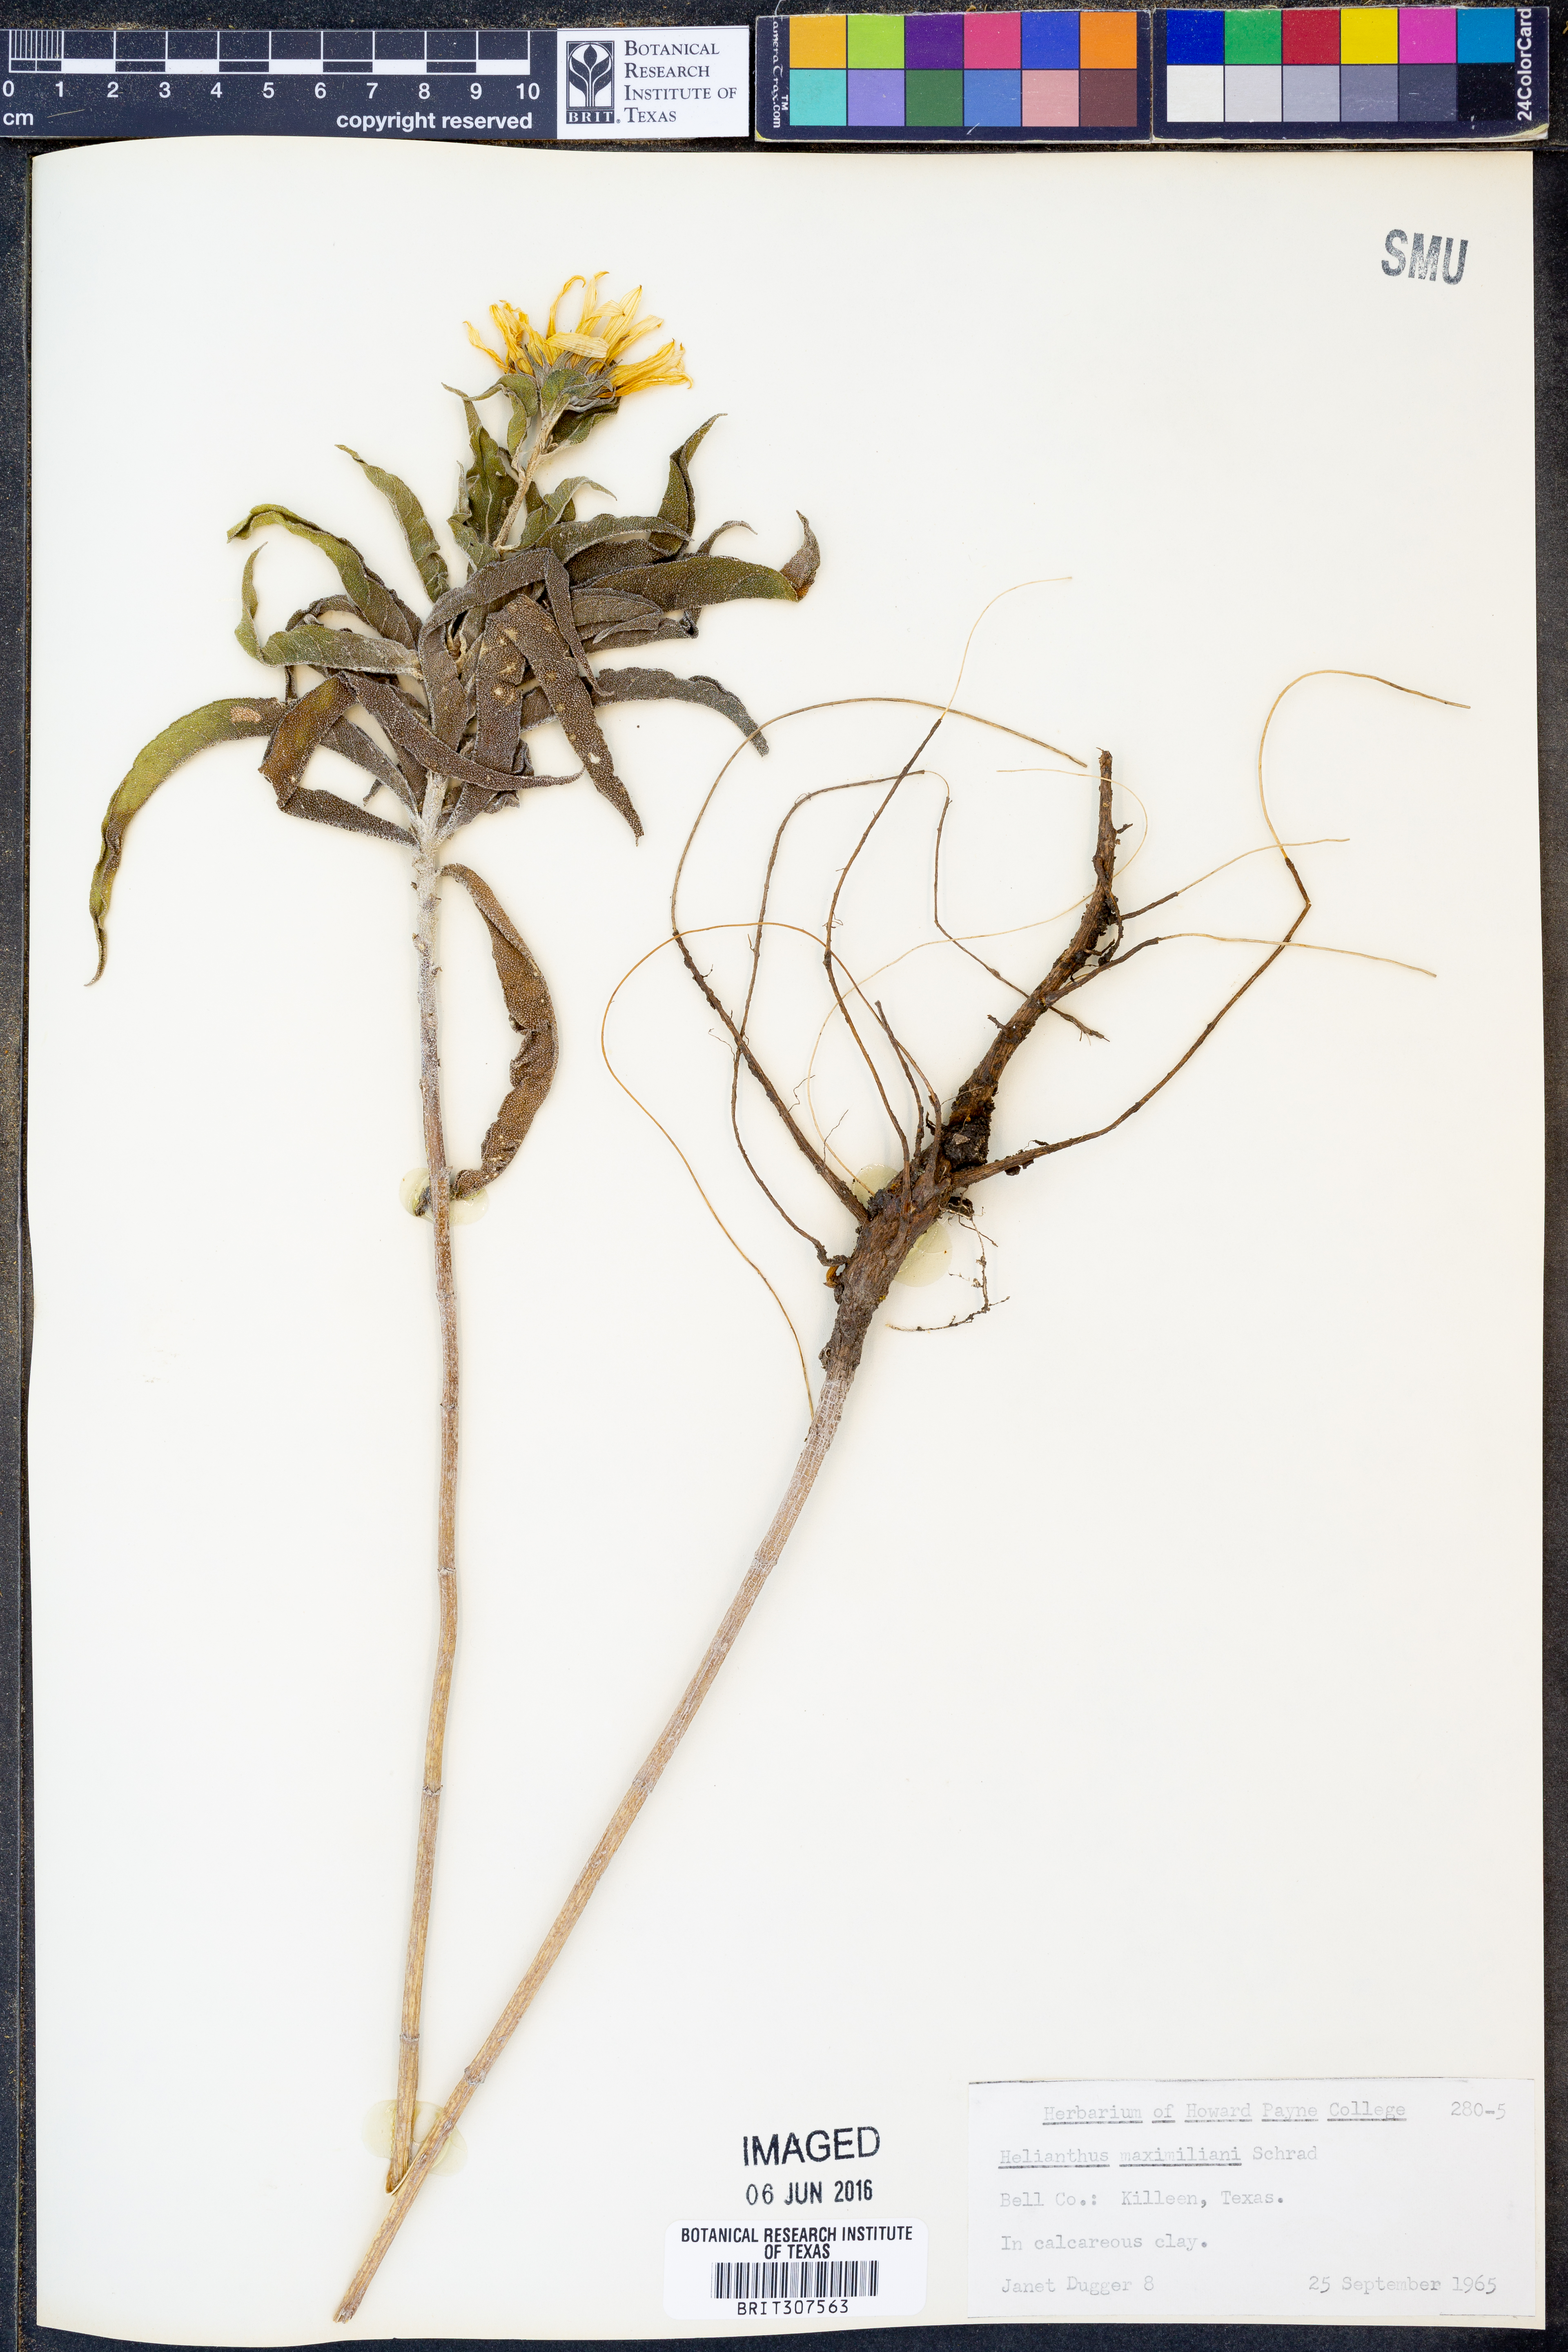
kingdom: Plantae
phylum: Tracheophyta
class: Magnoliopsida
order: Asterales
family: Asteraceae
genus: Helianthus
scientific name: Helianthus maximiliani
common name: Maximilian's sunflower
